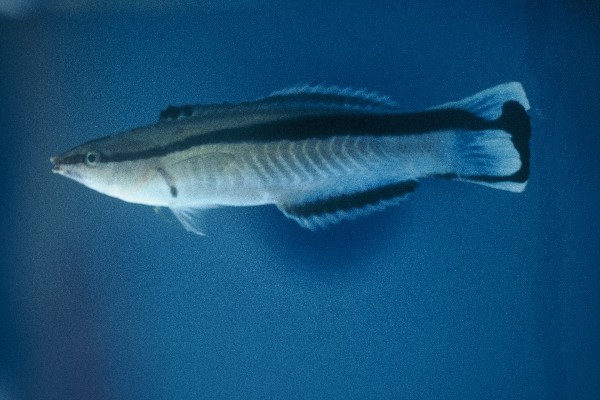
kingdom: Animalia
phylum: Chordata
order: Perciformes
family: Labridae
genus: Labroides
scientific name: Labroides dimidiatus
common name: Blue diesel wrasse
